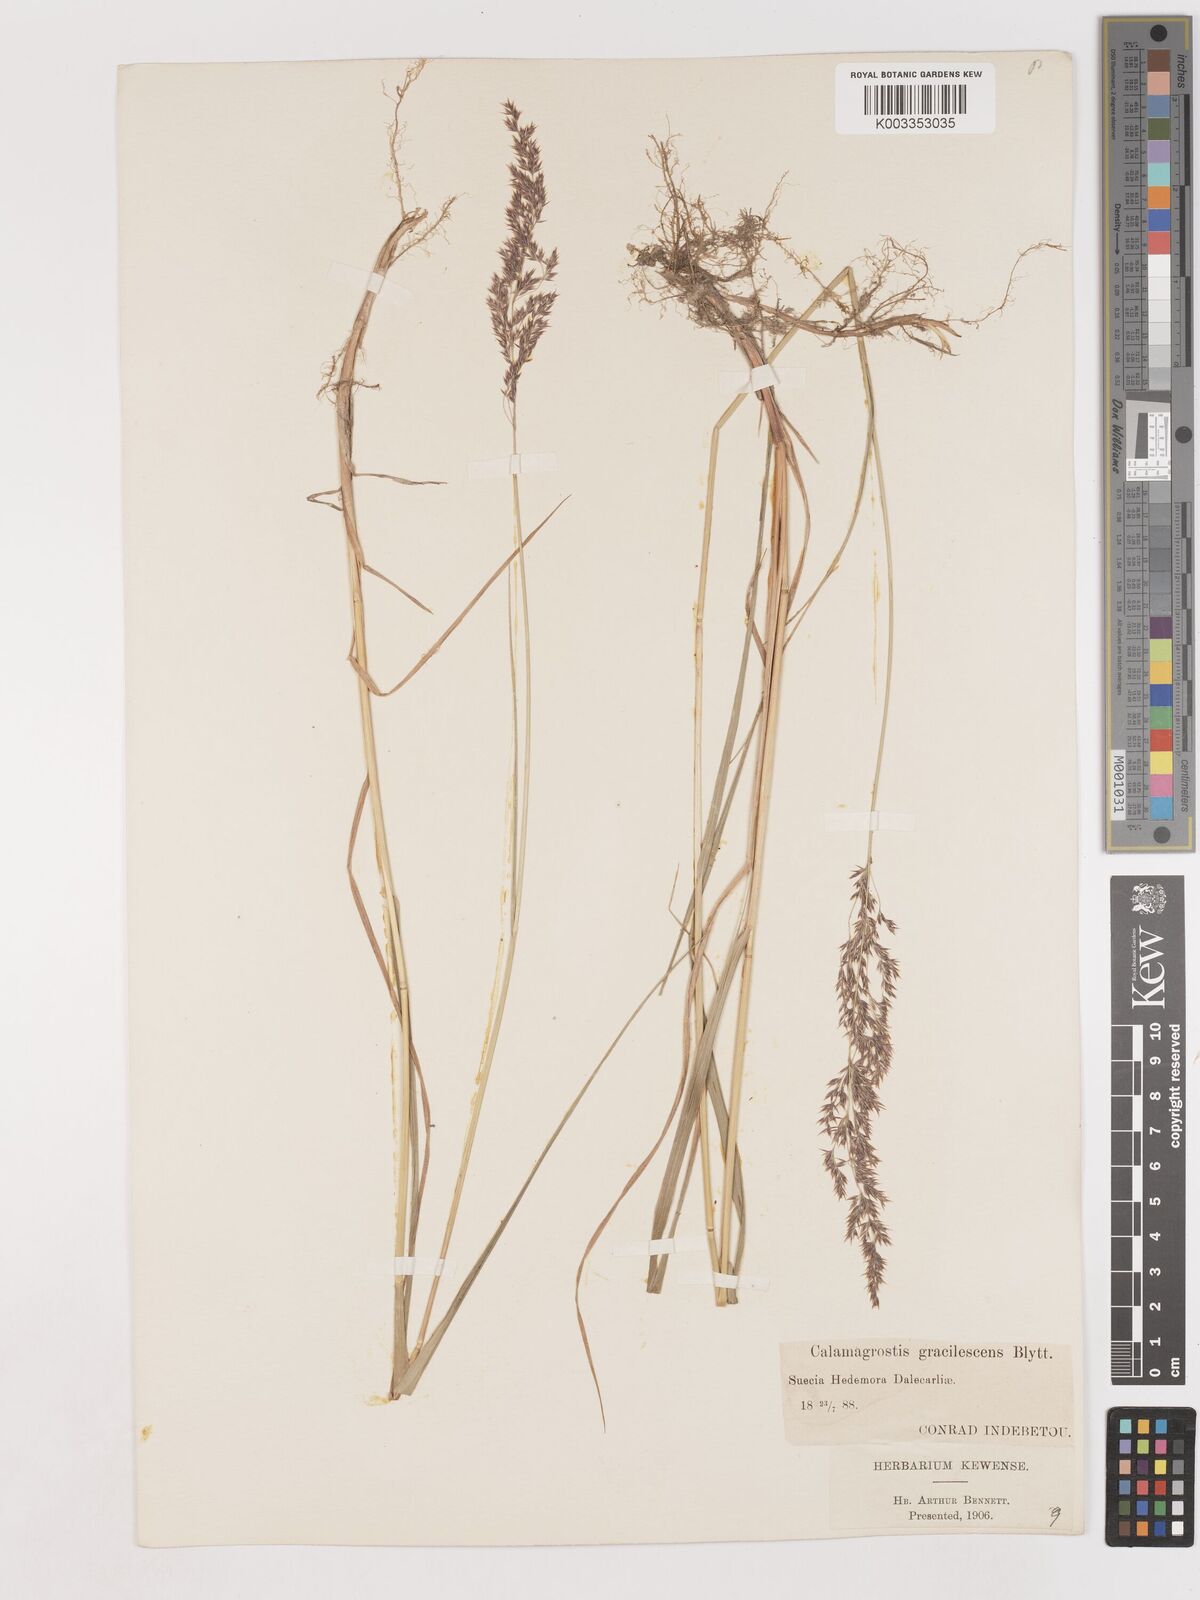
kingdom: Plantae
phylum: Tracheophyta
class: Liliopsida
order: Poales
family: Poaceae
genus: Calamagrostis
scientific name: Calamagrostis canescens
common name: Purple small-reed
